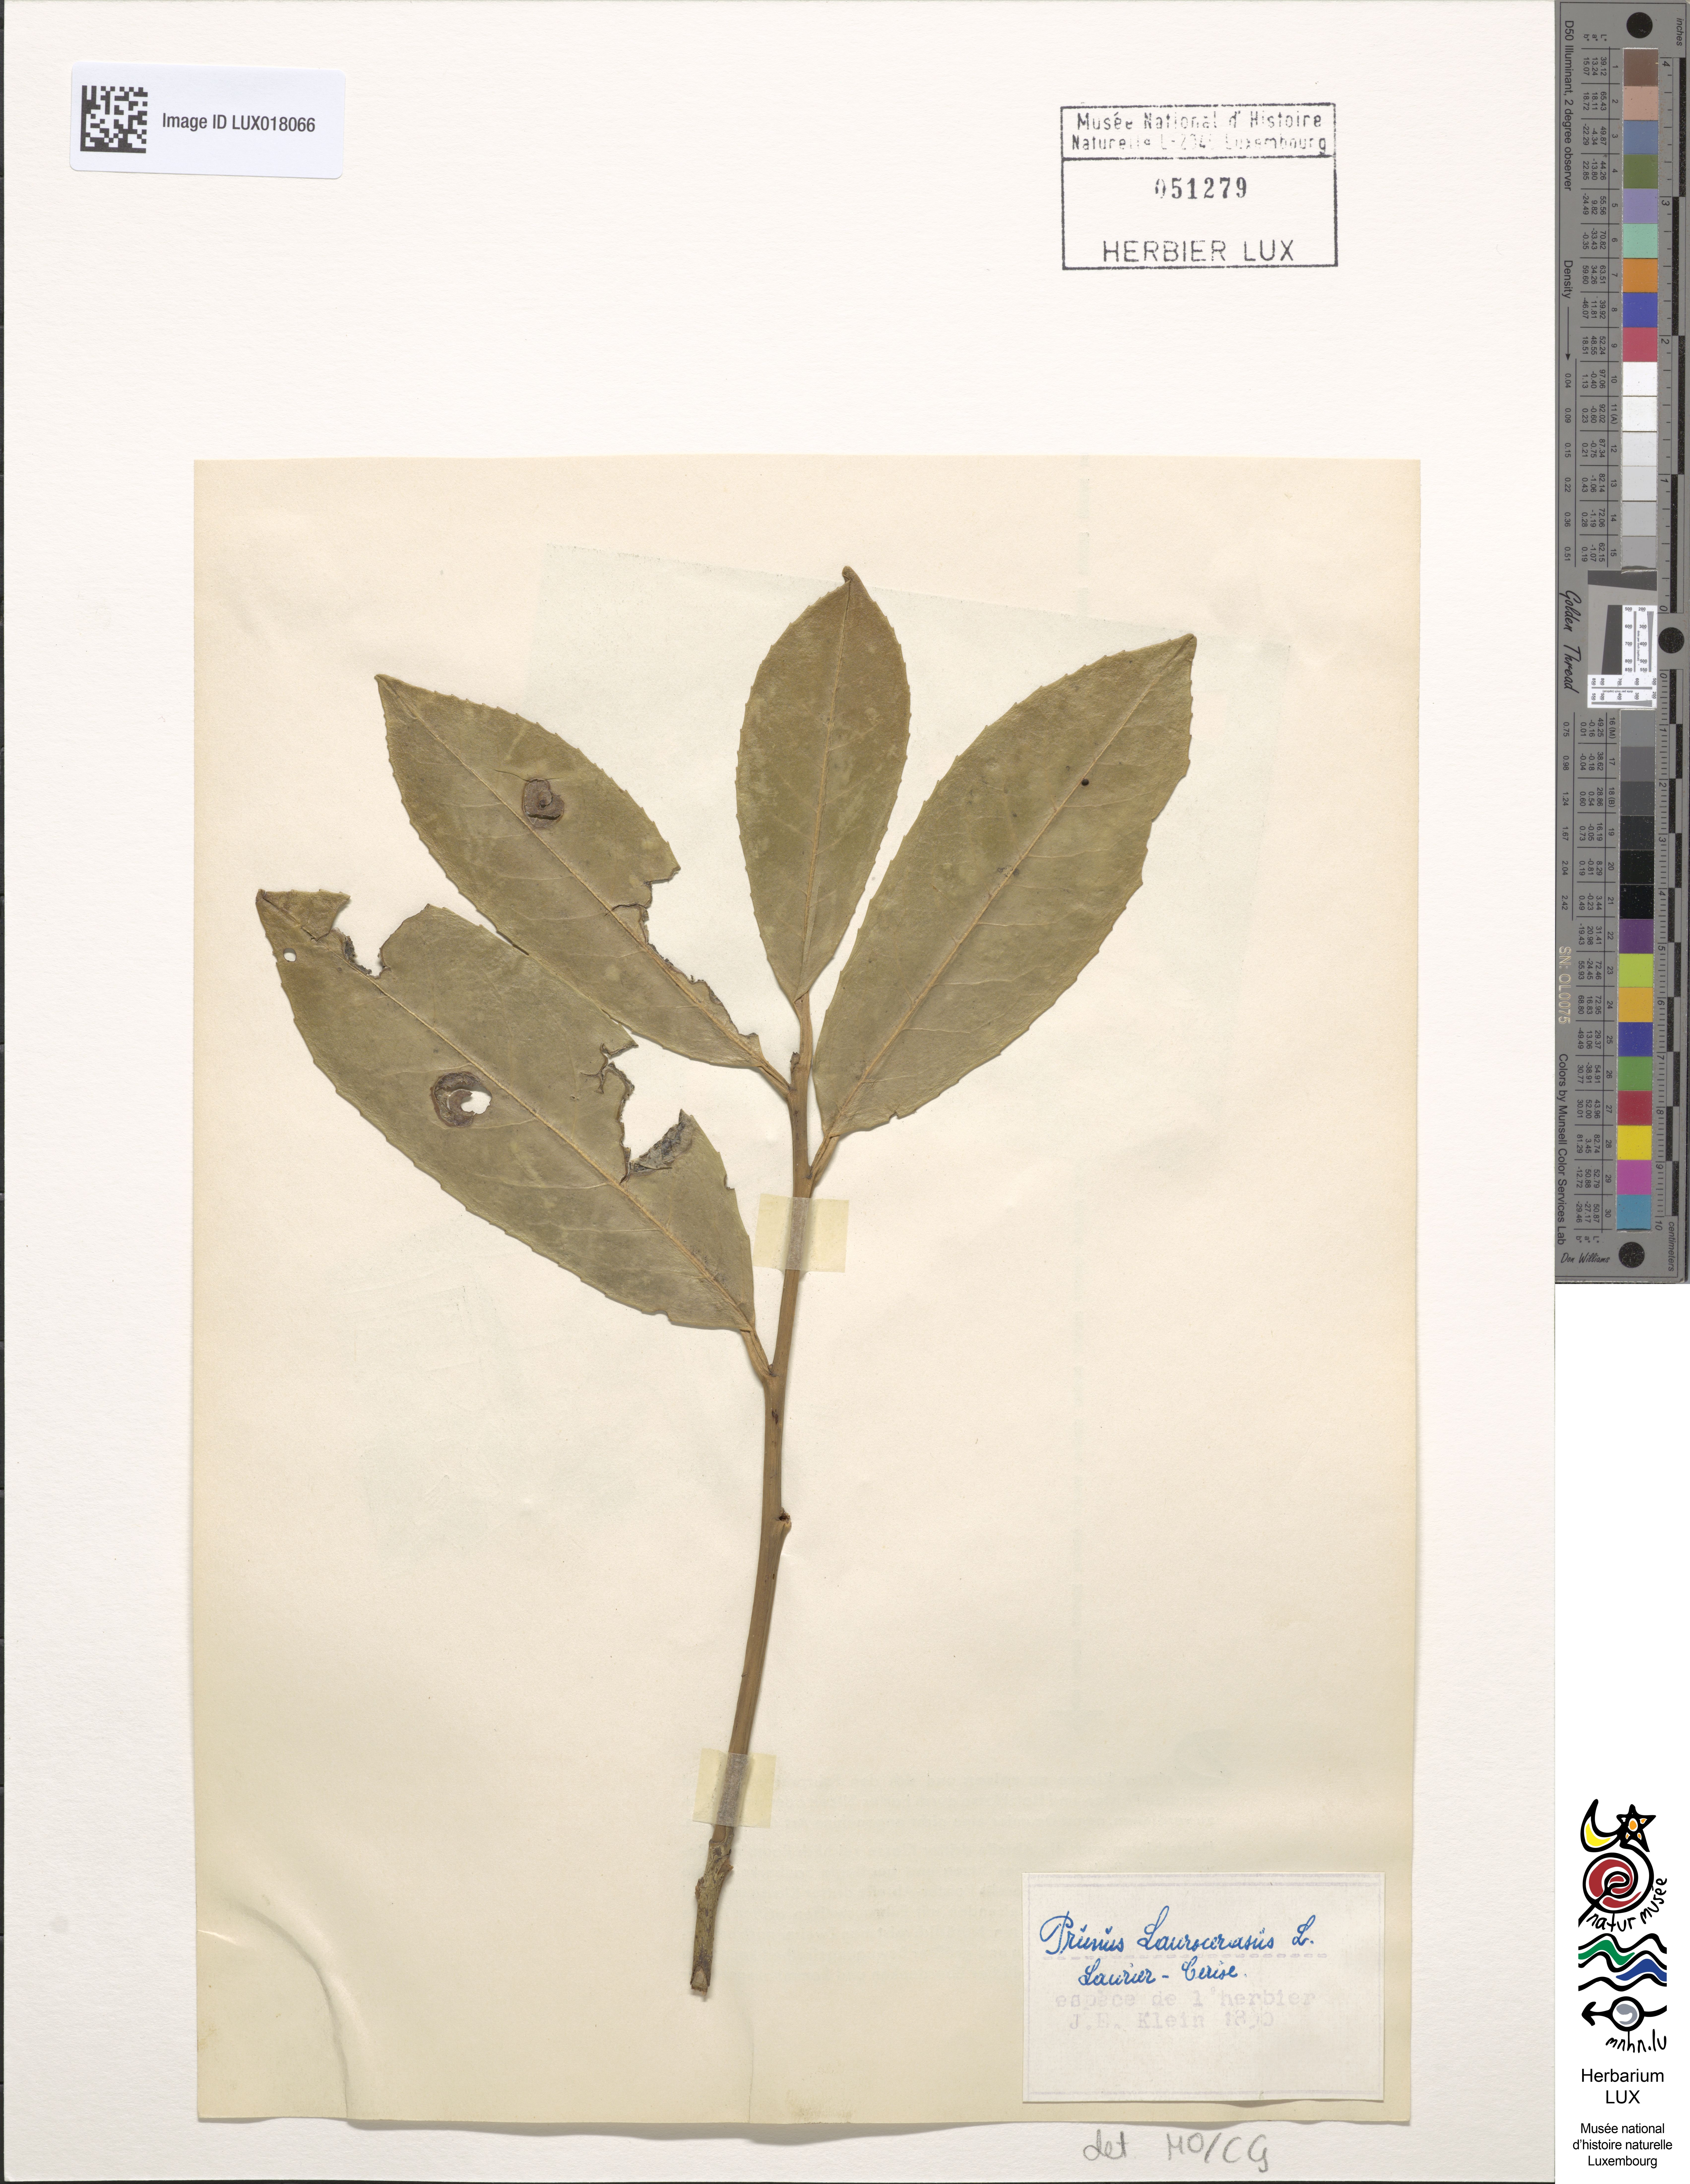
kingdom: Plantae
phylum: Tracheophyta
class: Magnoliopsida
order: Rosales
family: Rosaceae
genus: Prunus
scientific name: Prunus laurocerasus
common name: Cherry laurel
